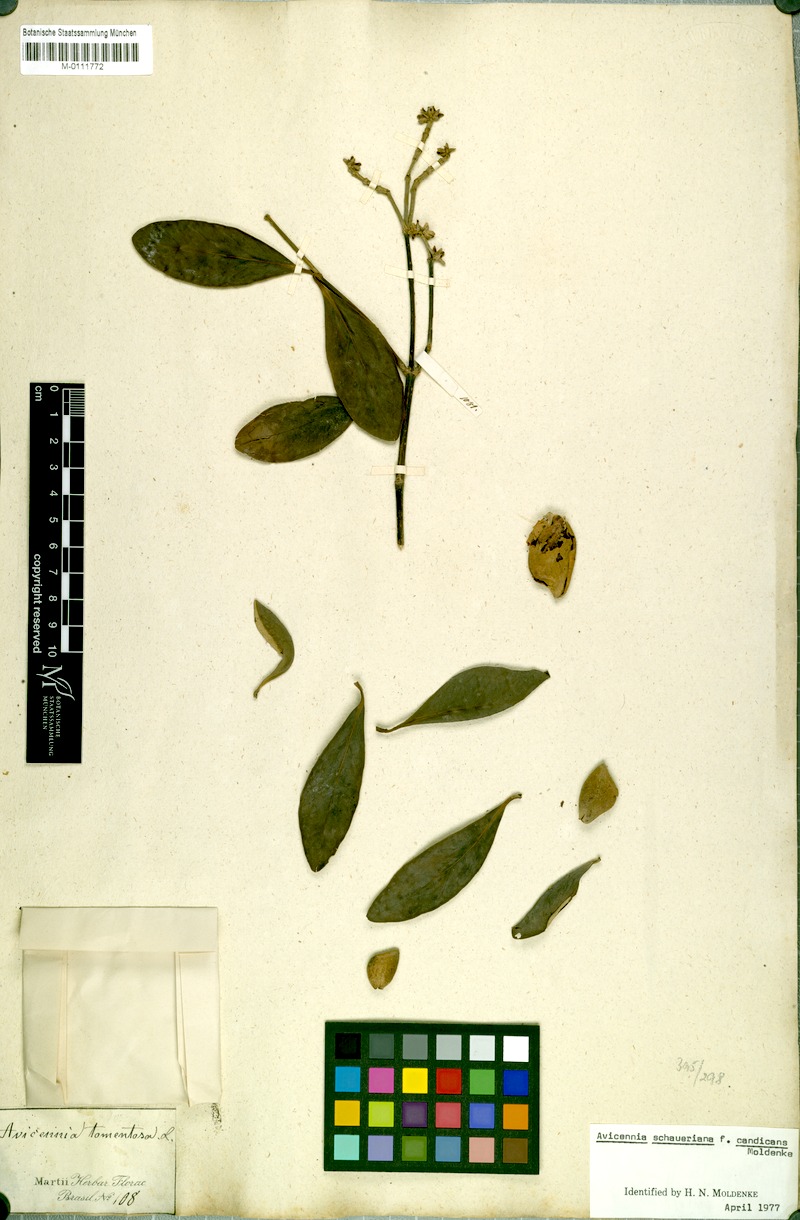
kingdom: Plantae
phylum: Tracheophyta
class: Magnoliopsida
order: Lamiales
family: Acanthaceae
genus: Avicennia
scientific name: Avicennia schaueriana
